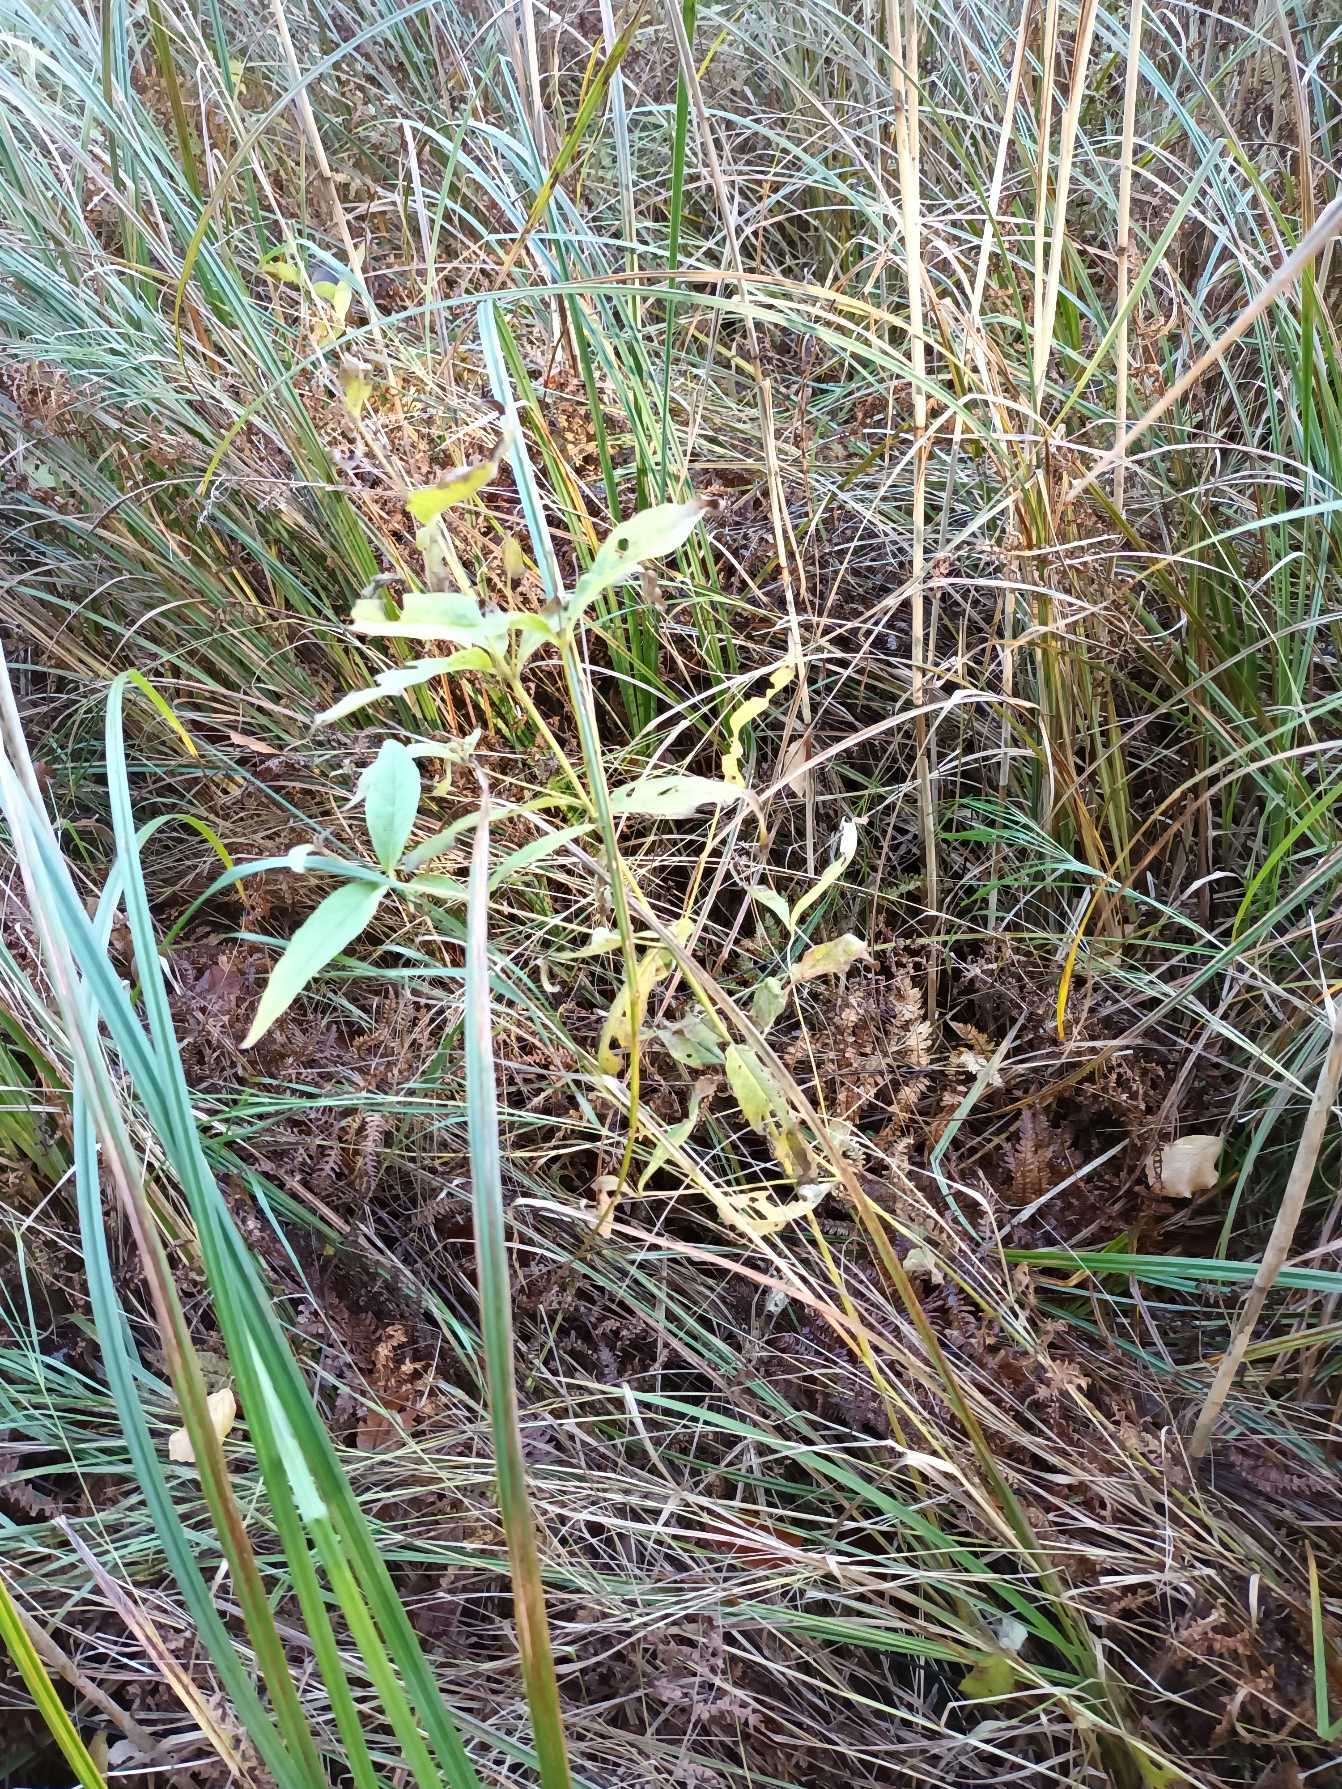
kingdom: Plantae
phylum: Tracheophyta
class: Magnoliopsida
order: Ericales
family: Primulaceae
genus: Lysimachia
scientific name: Lysimachia vulgaris
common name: Almindelig fredløs
